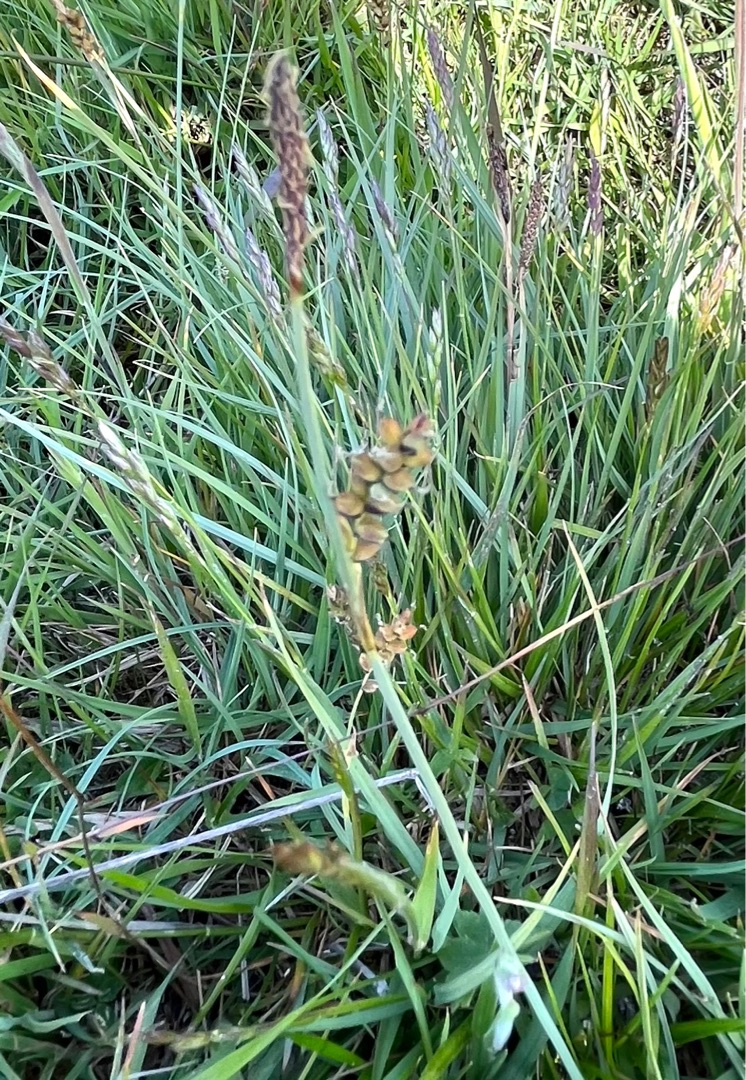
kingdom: Plantae
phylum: Tracheophyta
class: Liliopsida
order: Poales
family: Cyperaceae
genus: Carex
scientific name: Carex panicea
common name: Hirse-star
